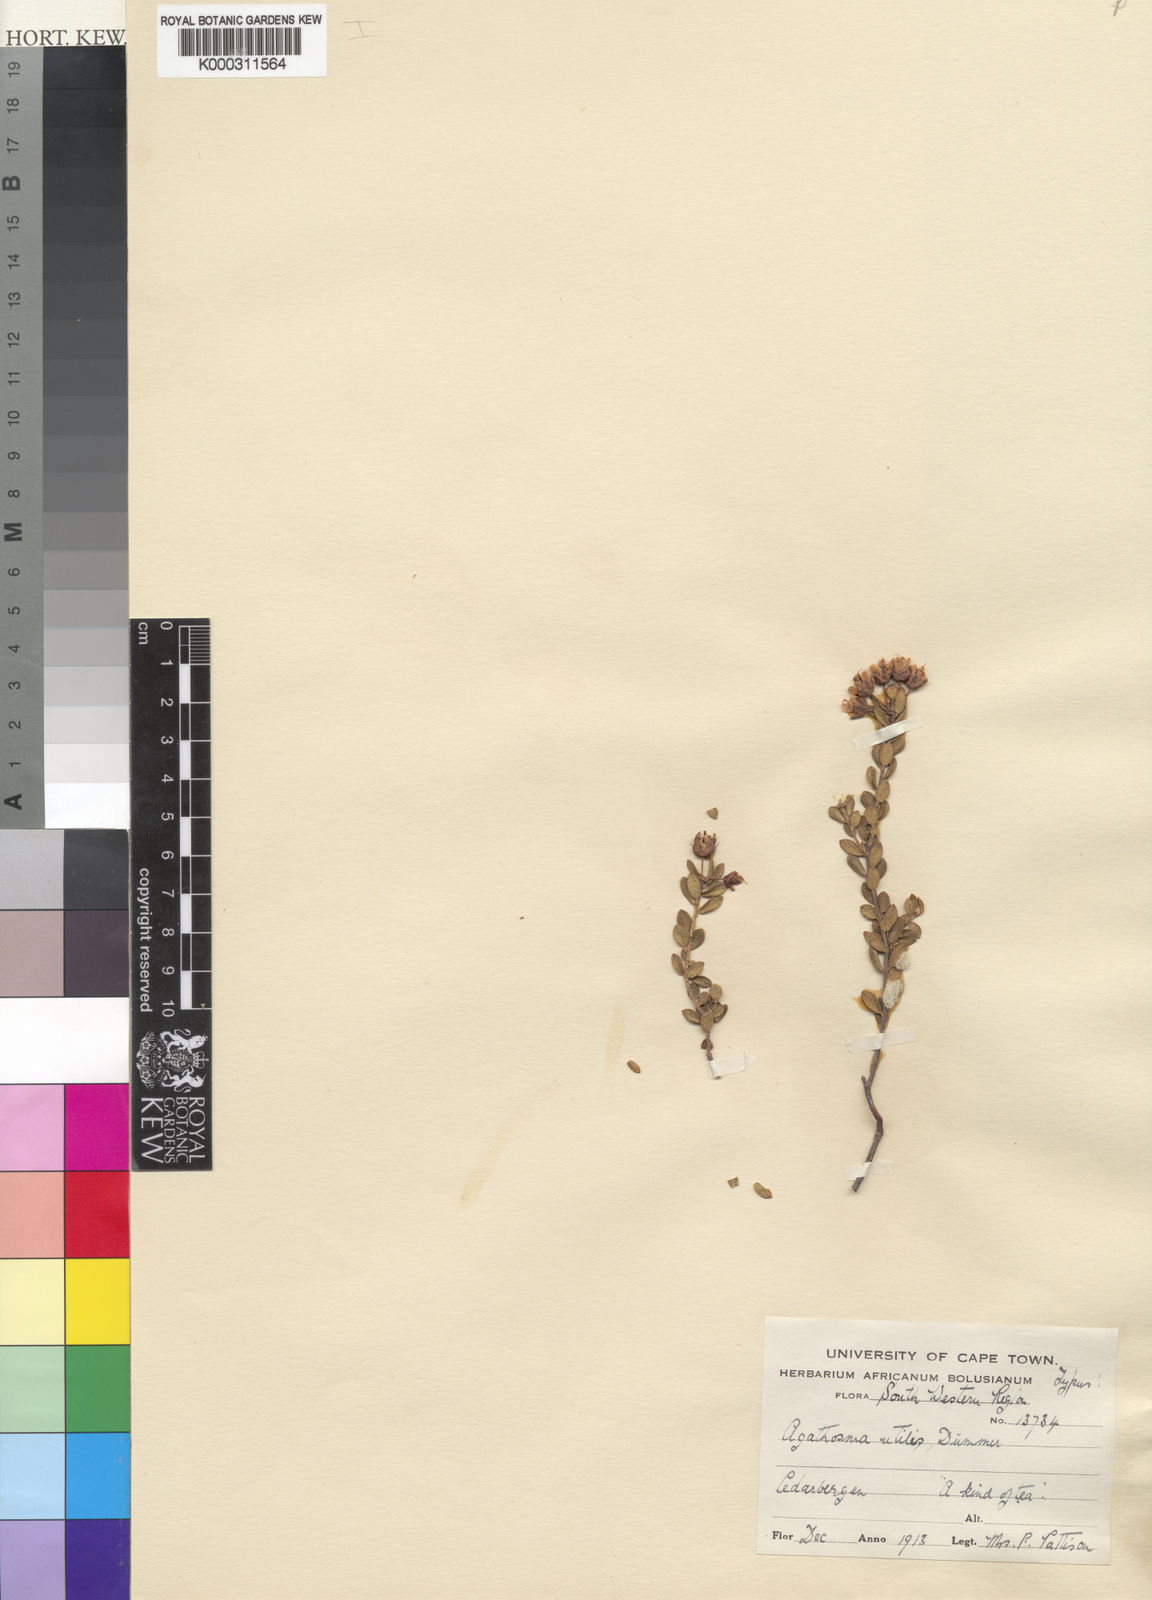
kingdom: Plantae
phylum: Tracheophyta
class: Magnoliopsida
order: Sapindales
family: Rutaceae
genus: Agathosma
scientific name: Agathosma craspedota
